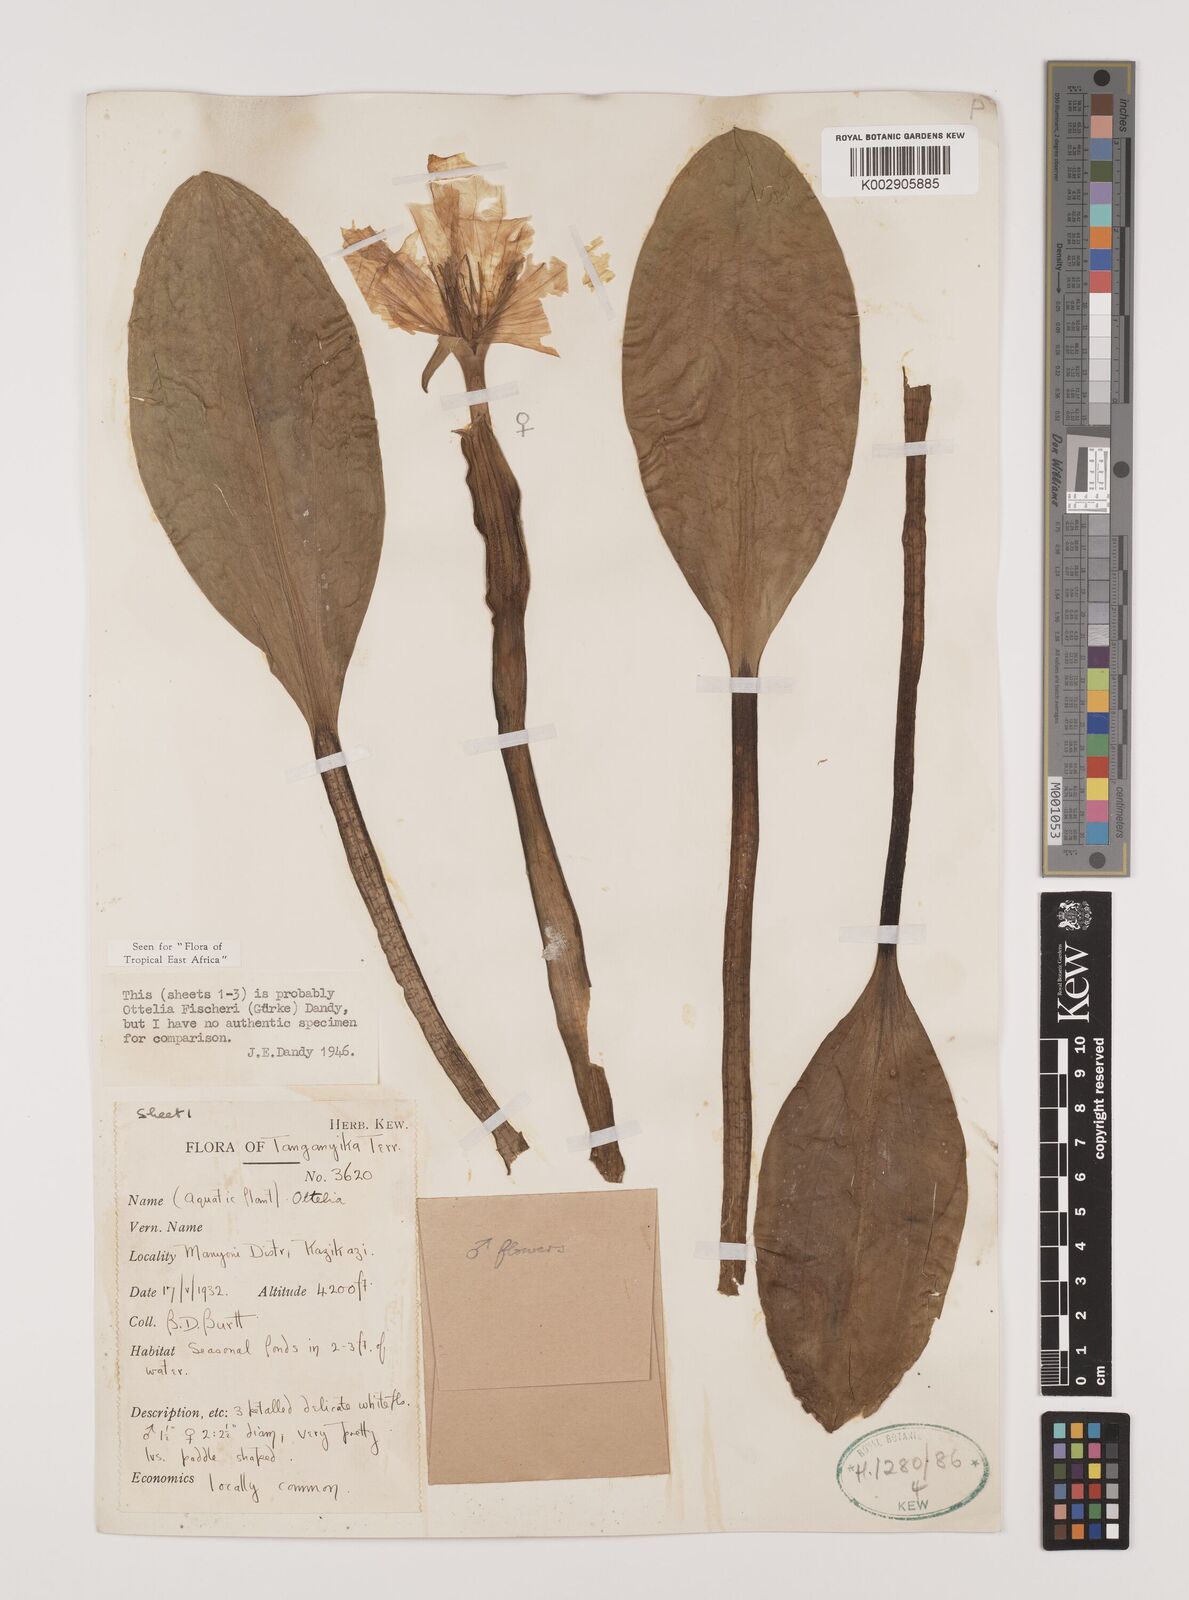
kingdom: Plantae
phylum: Tracheophyta
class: Liliopsida
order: Alismatales
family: Hydrocharitaceae
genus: Ottelia
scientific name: Ottelia fischeri
